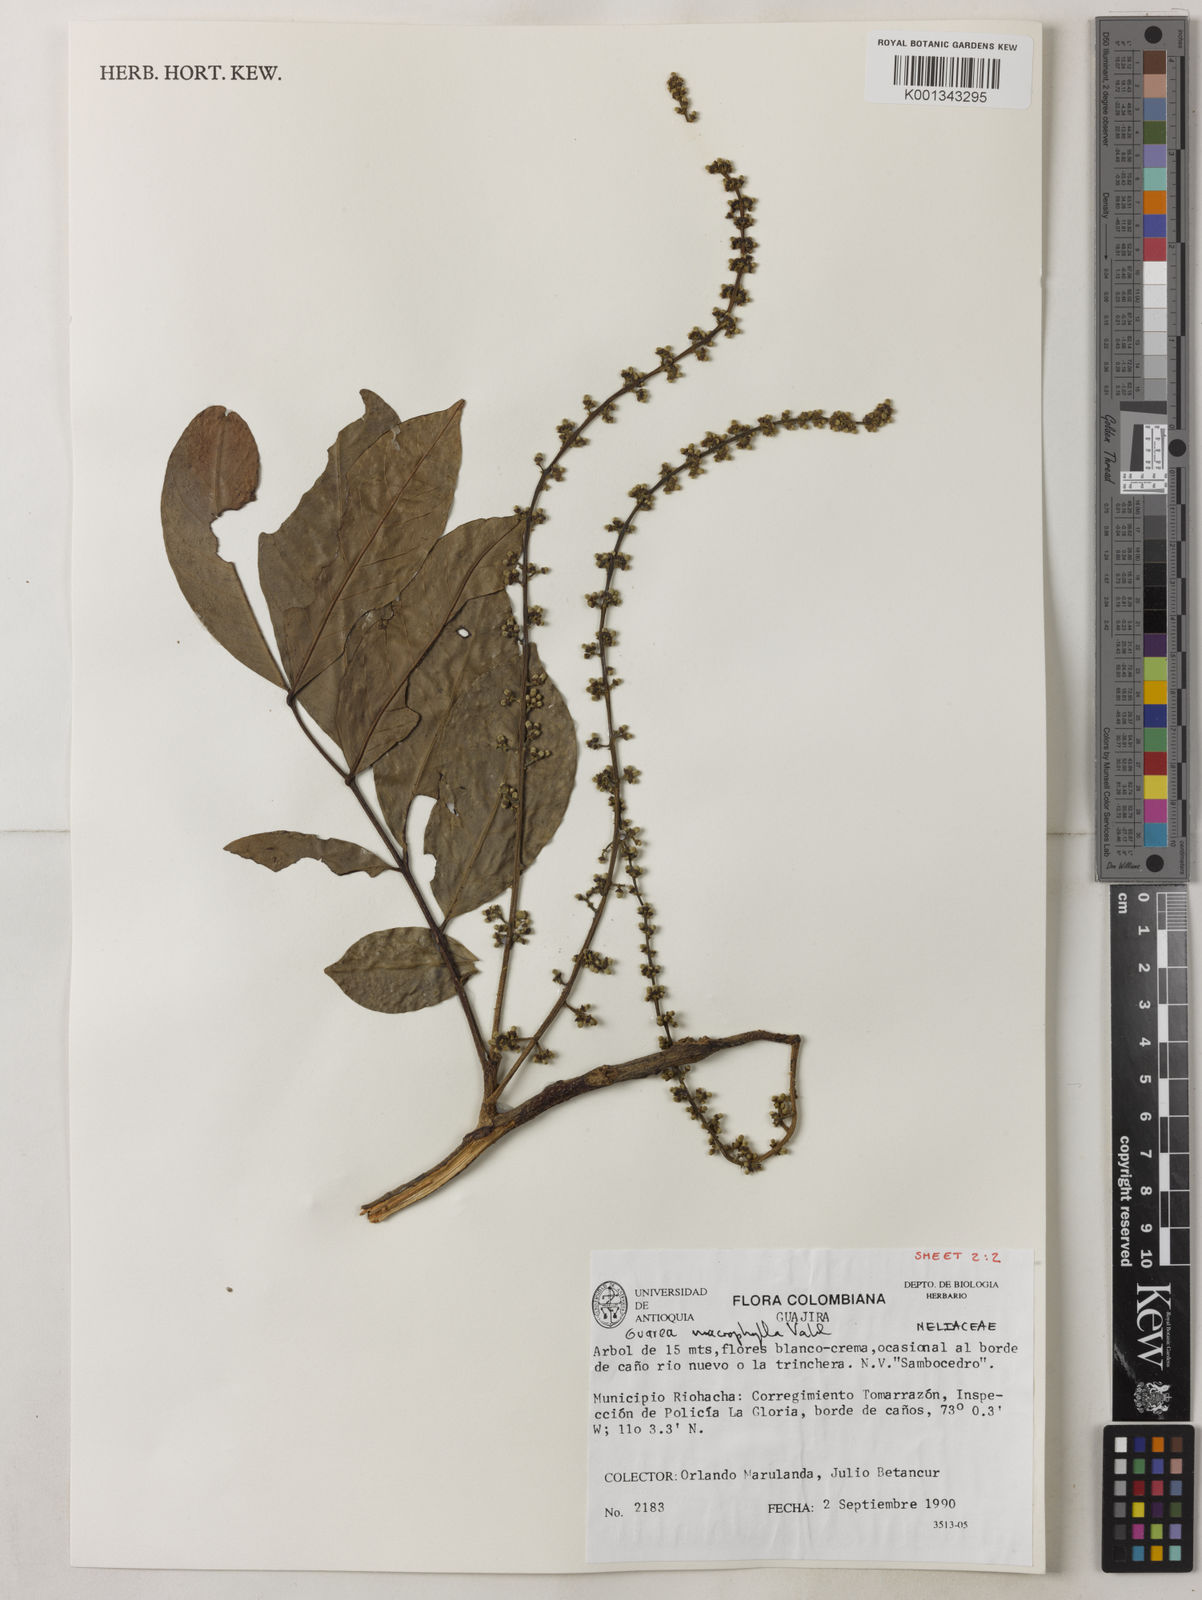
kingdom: Plantae
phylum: Tracheophyta
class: Magnoliopsida
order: Sapindales
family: Meliaceae
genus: Guarea
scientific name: Guarea macrophylla
